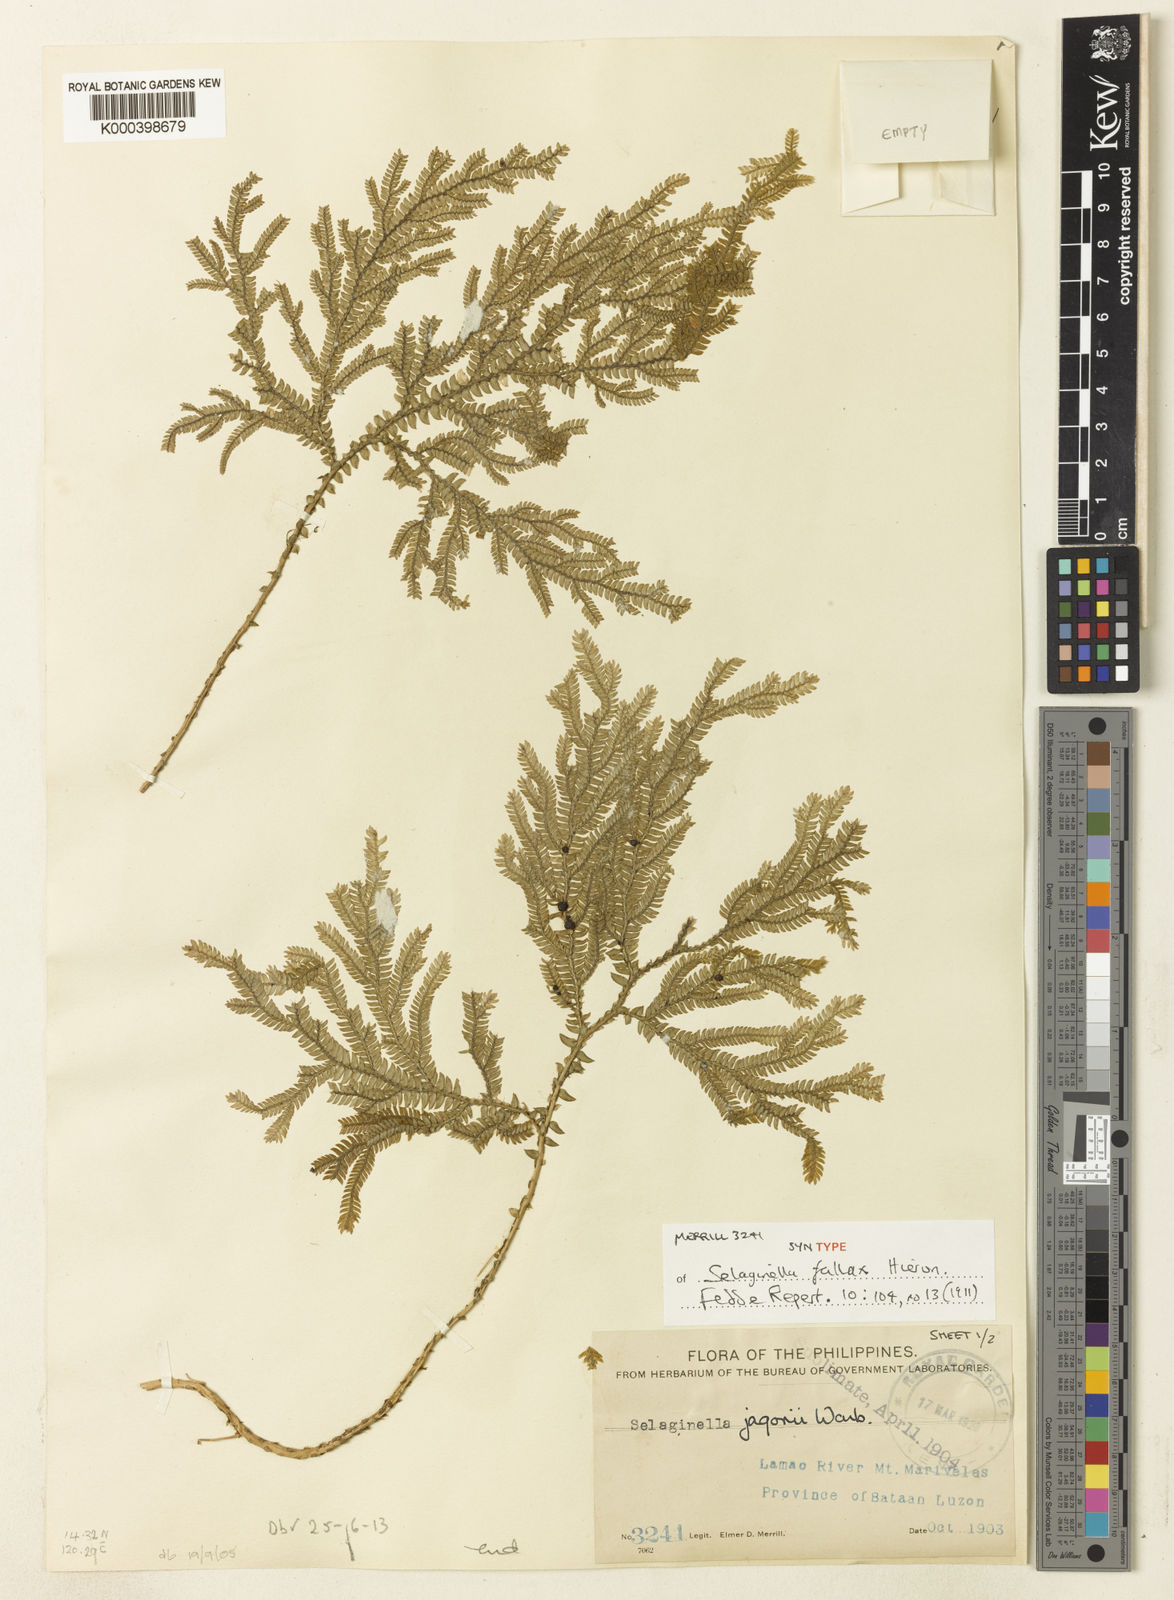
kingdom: Plantae
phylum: Tracheophyta
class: Lycopodiopsida
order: Selaginellales
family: Selaginellaceae
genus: Selaginella
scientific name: Selaginella jagorii
